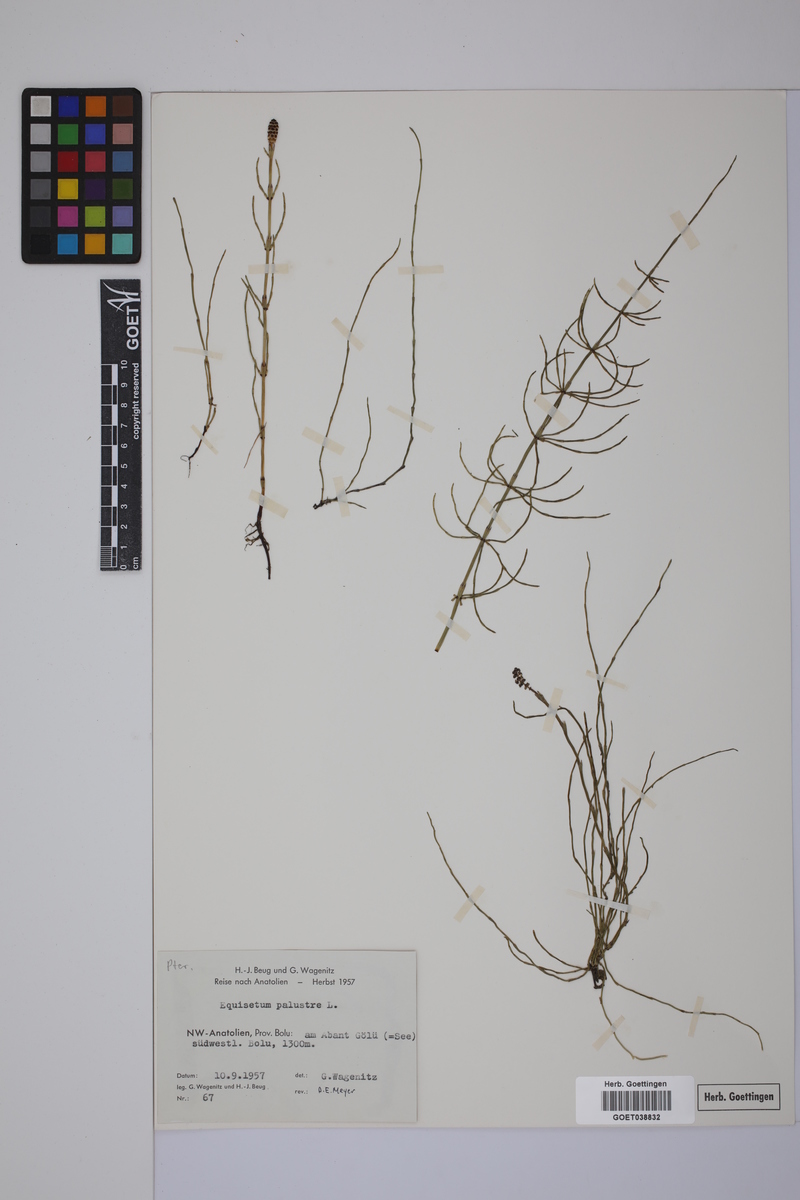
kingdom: Plantae
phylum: Tracheophyta
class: Polypodiopsida
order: Equisetales
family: Equisetaceae
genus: Equisetum
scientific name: Equisetum palustre
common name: Marsh horsetail
